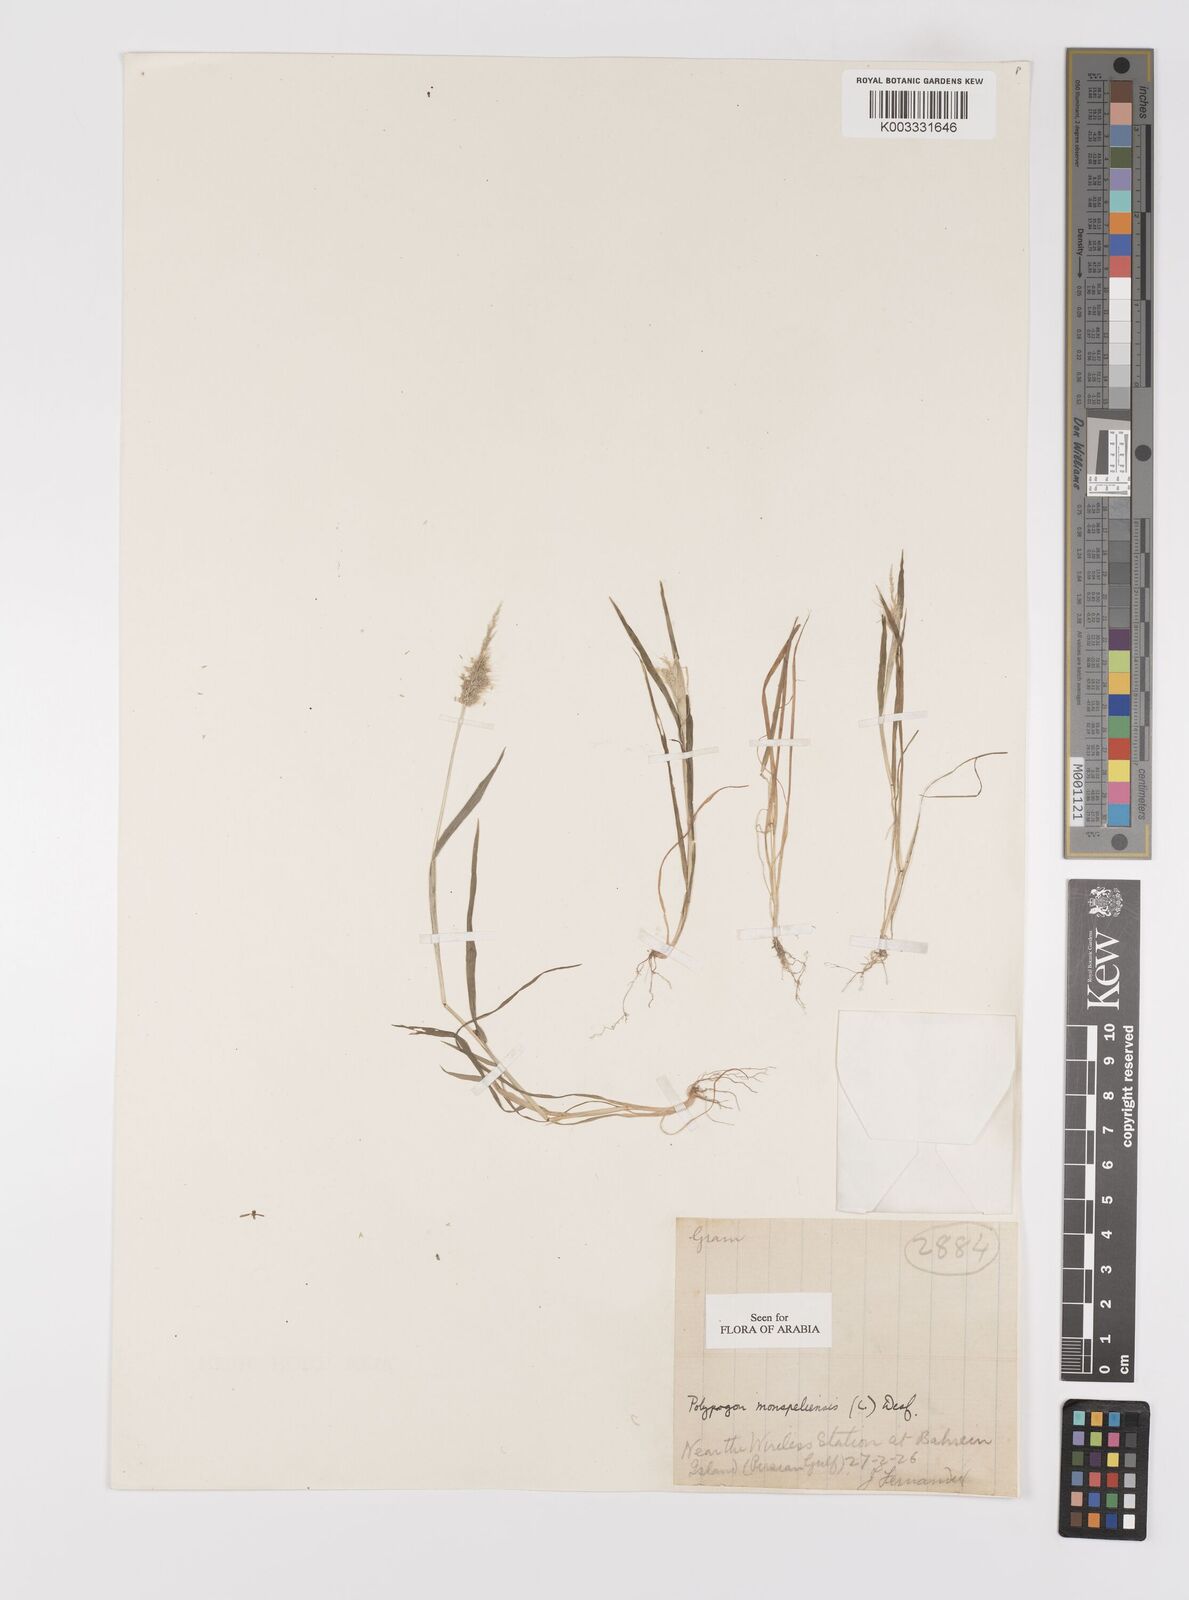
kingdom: Plantae
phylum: Tracheophyta
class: Liliopsida
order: Poales
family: Poaceae
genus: Polypogon
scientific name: Polypogon monspeliensis
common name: Annual rabbitsfoot grass
